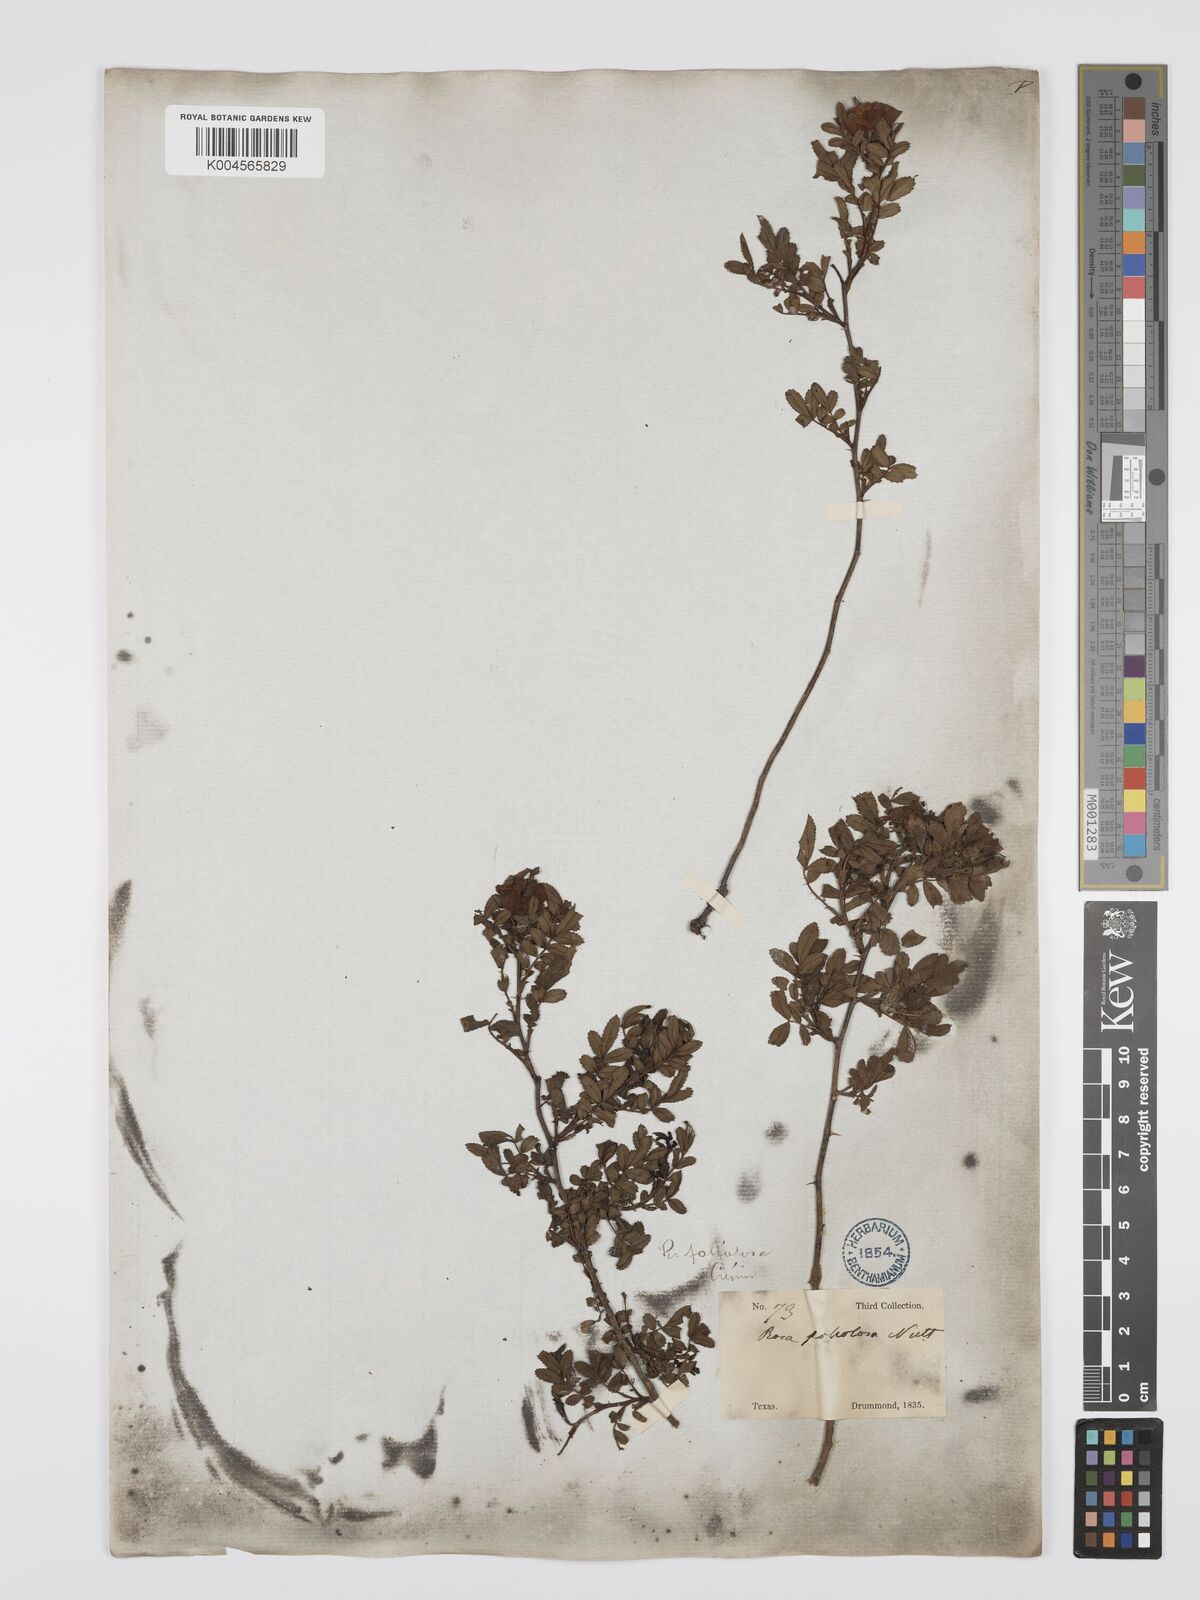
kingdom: Plantae
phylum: Tracheophyta
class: Magnoliopsida
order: Rosales
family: Rosaceae
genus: Rosa
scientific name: Rosa foliolosa
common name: White prairie rose
